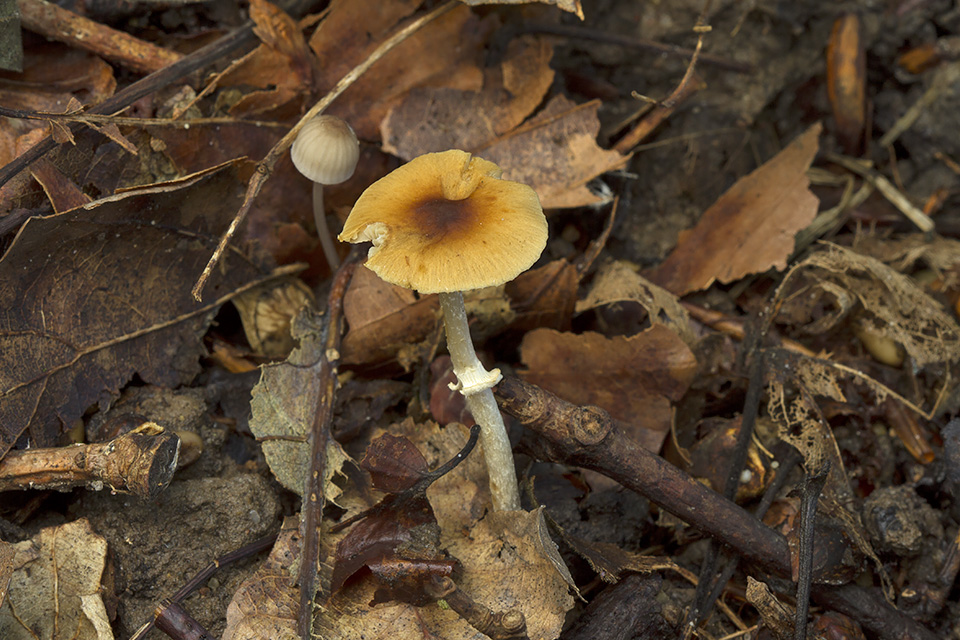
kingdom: Fungi
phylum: Basidiomycota
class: Agaricomycetes
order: Agaricales
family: Bolbitiaceae
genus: Conocybe
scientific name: Conocybe arrhenii
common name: ring-dansehat
